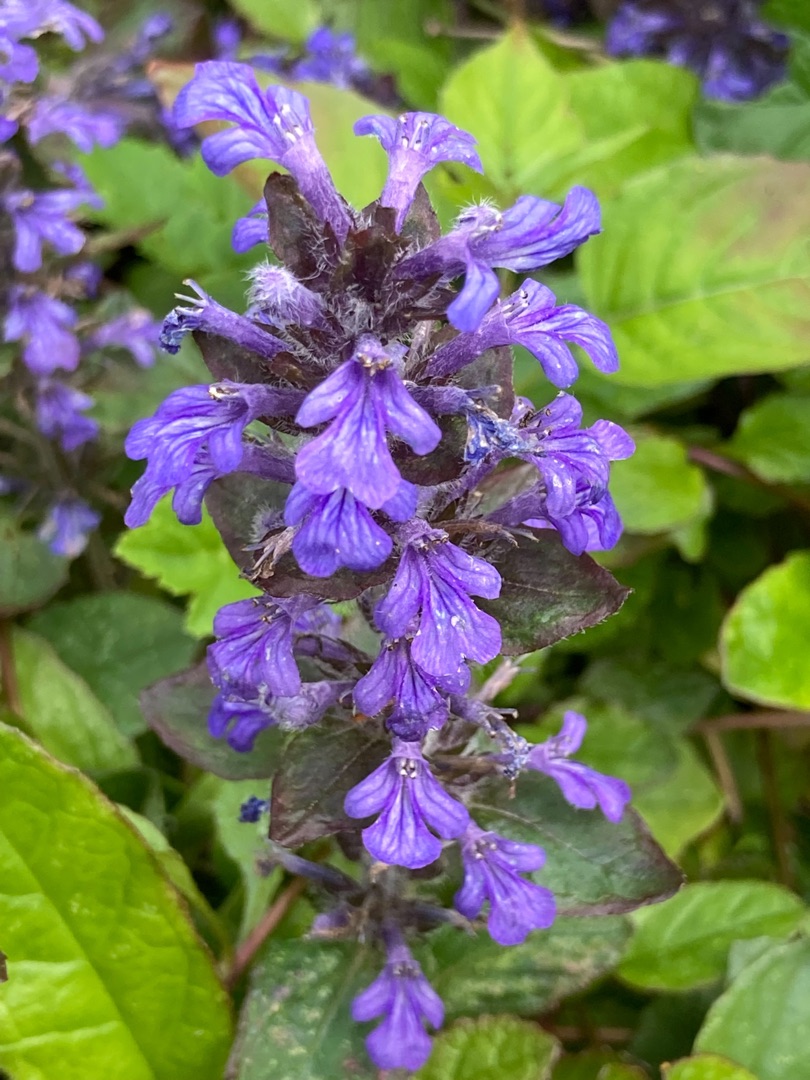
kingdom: Plantae
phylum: Tracheophyta
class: Magnoliopsida
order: Lamiales
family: Lamiaceae
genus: Ajuga
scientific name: Ajuga reptans
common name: Krybende læbeløs
